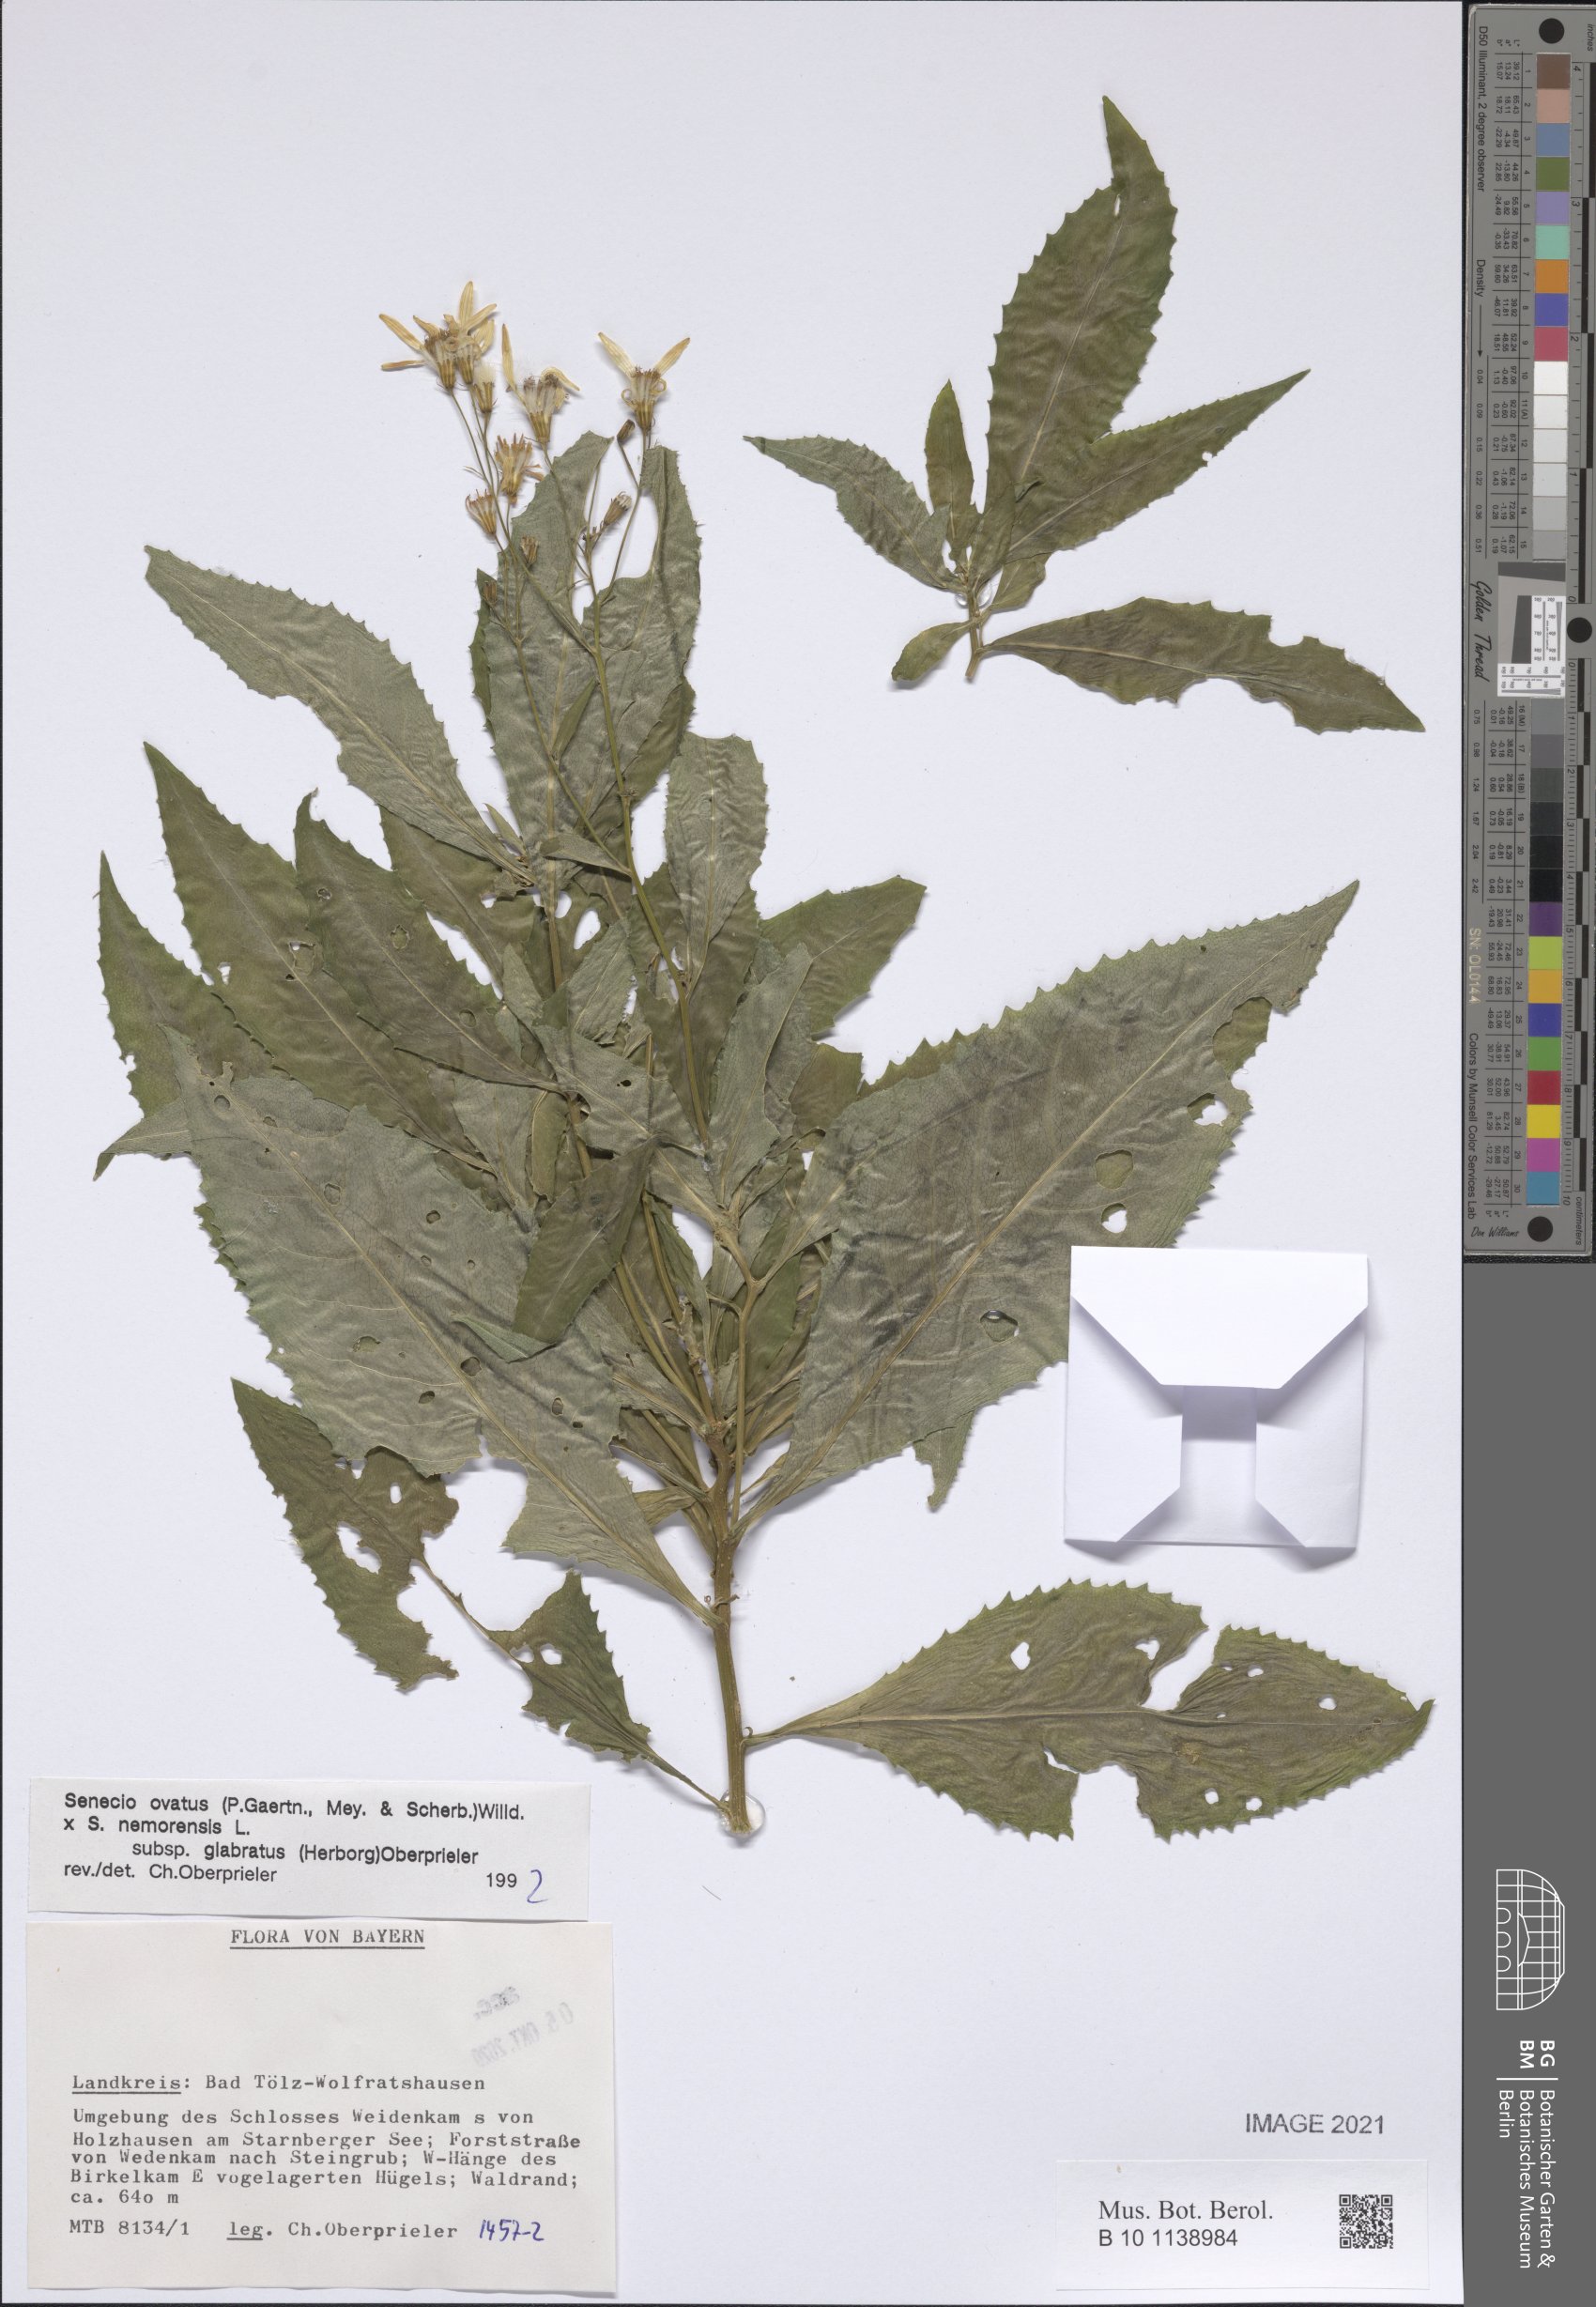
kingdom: Plantae
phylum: Tracheophyta
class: Magnoliopsida
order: Asterales
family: Asteraceae
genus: Senecio
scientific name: Senecio ovatus
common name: Wood ragwort
